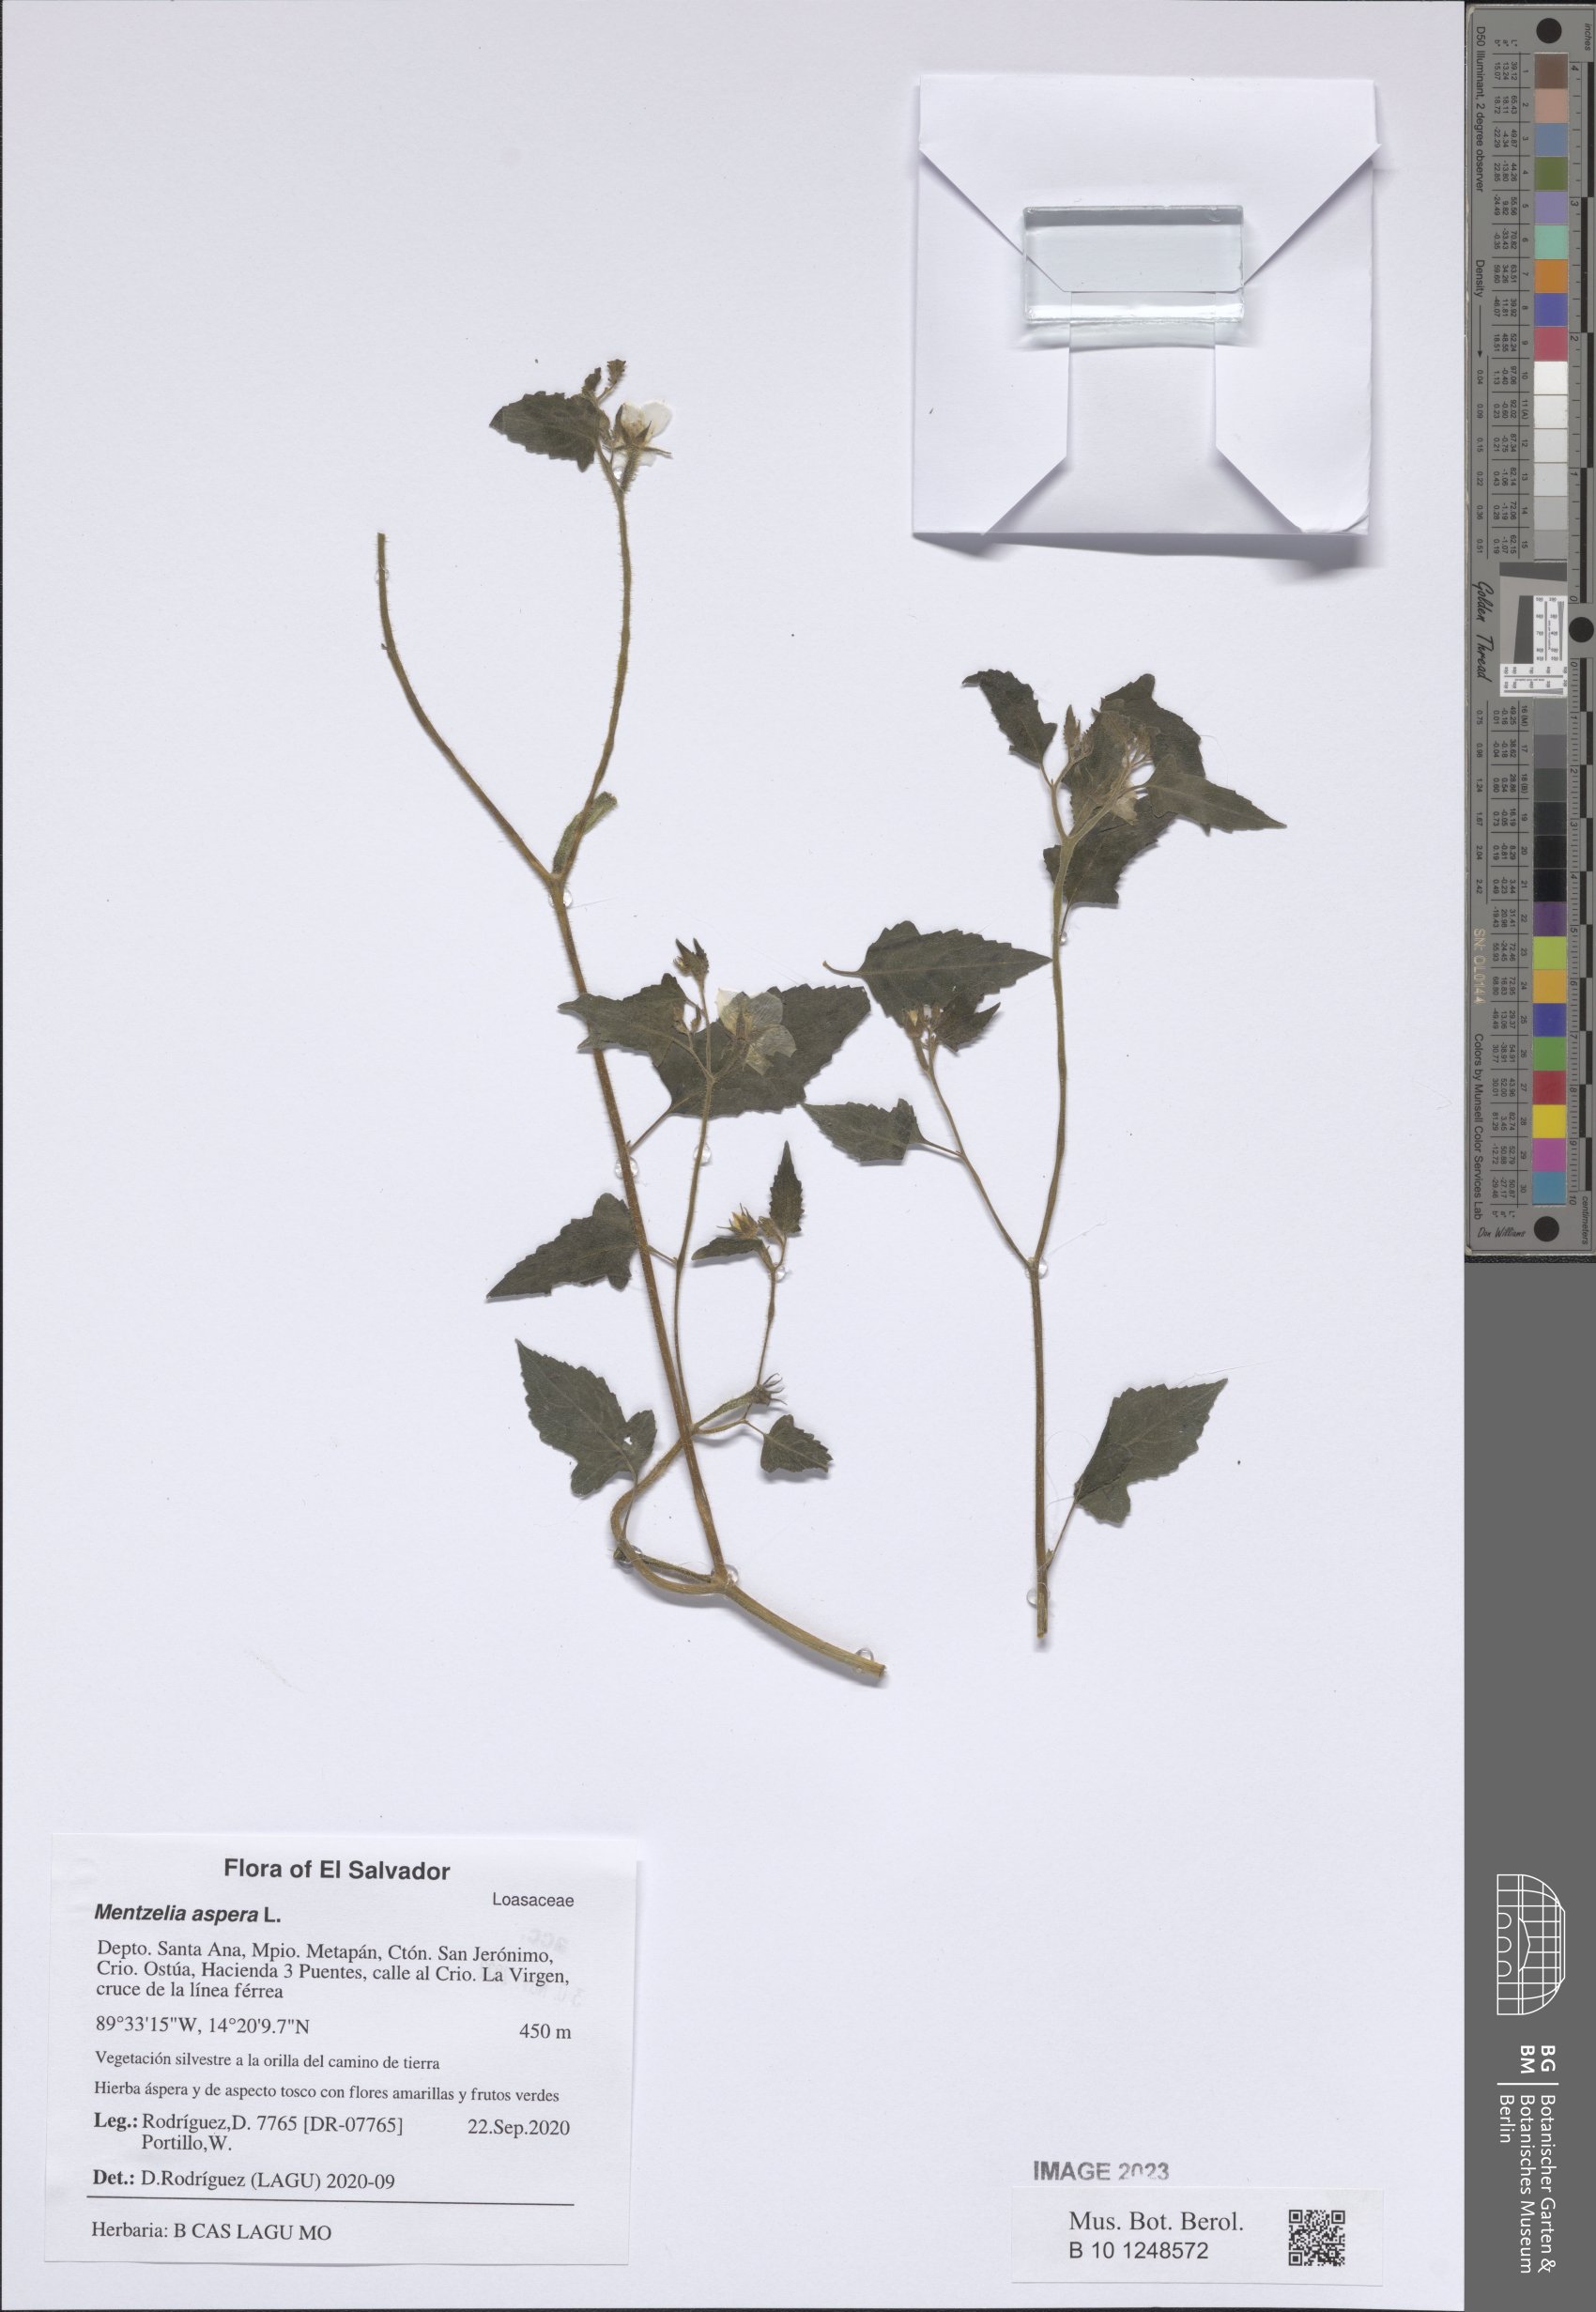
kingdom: Plantae
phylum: Tracheophyta
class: Magnoliopsida
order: Cornales
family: Loasaceae
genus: Mentzelia
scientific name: Mentzelia aspera
